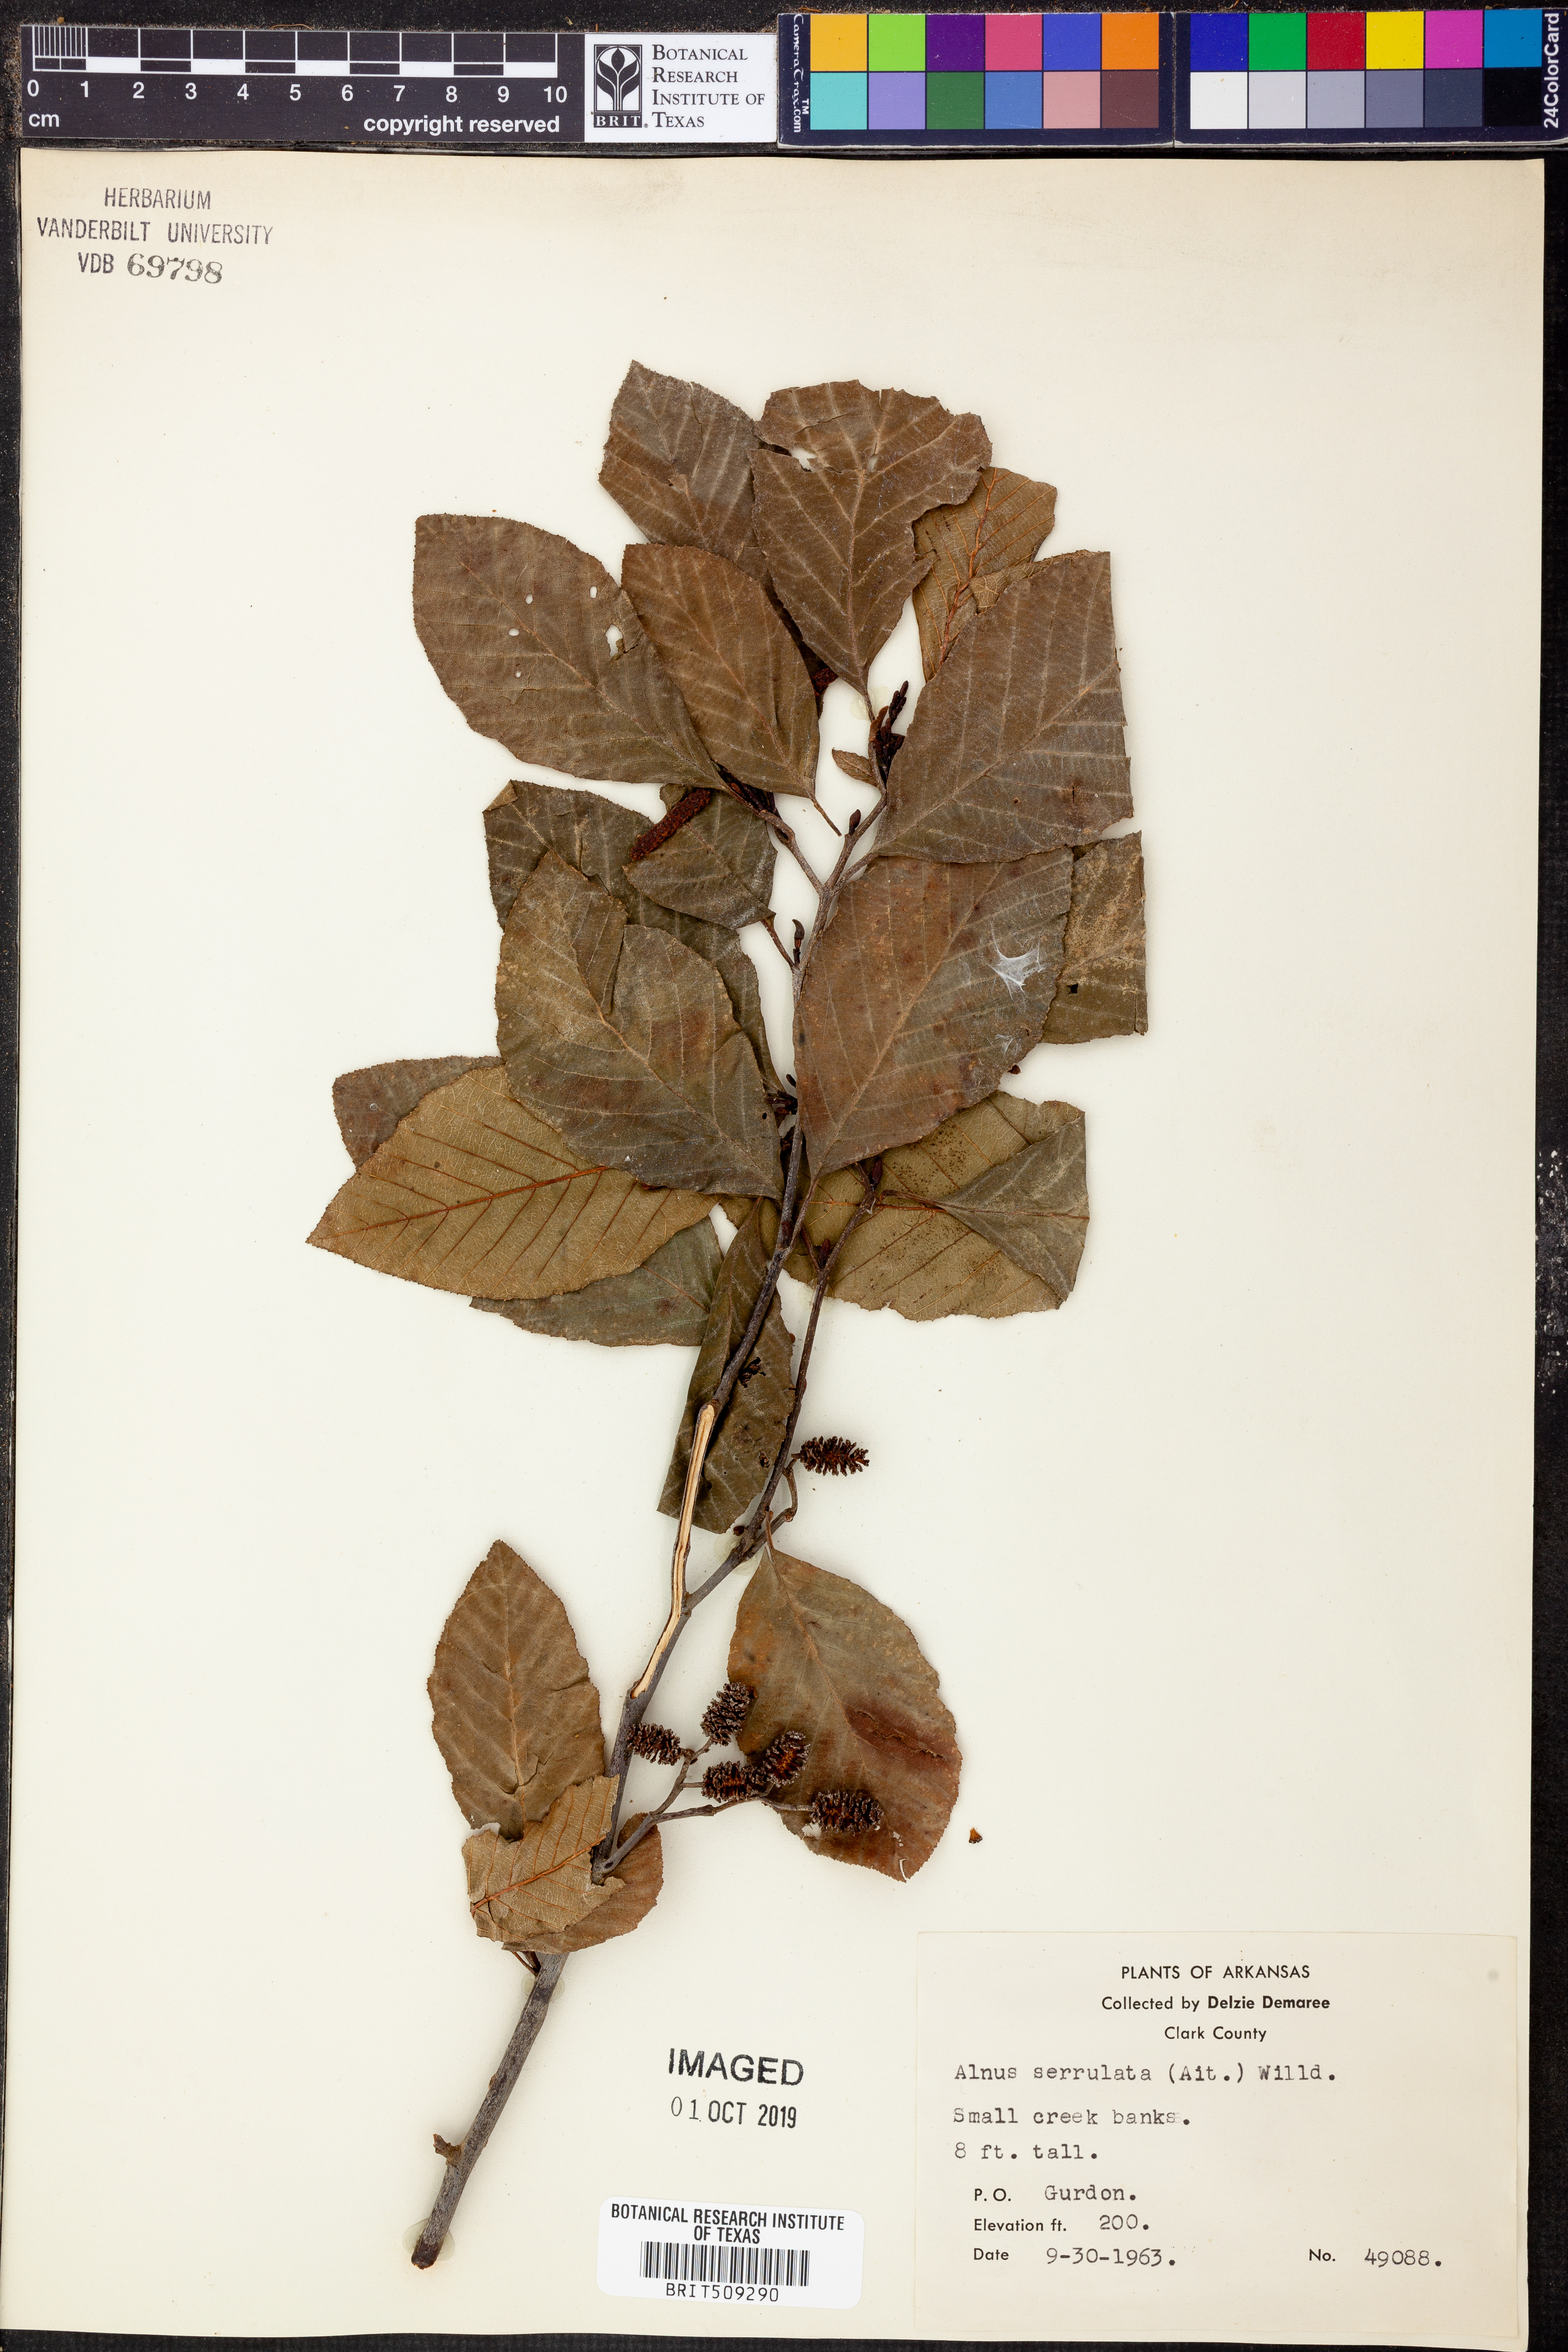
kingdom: Plantae
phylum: Tracheophyta
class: Magnoliopsida
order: Fagales
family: Betulaceae
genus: Alnus
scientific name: Alnus serrulata
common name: Hazel alder
